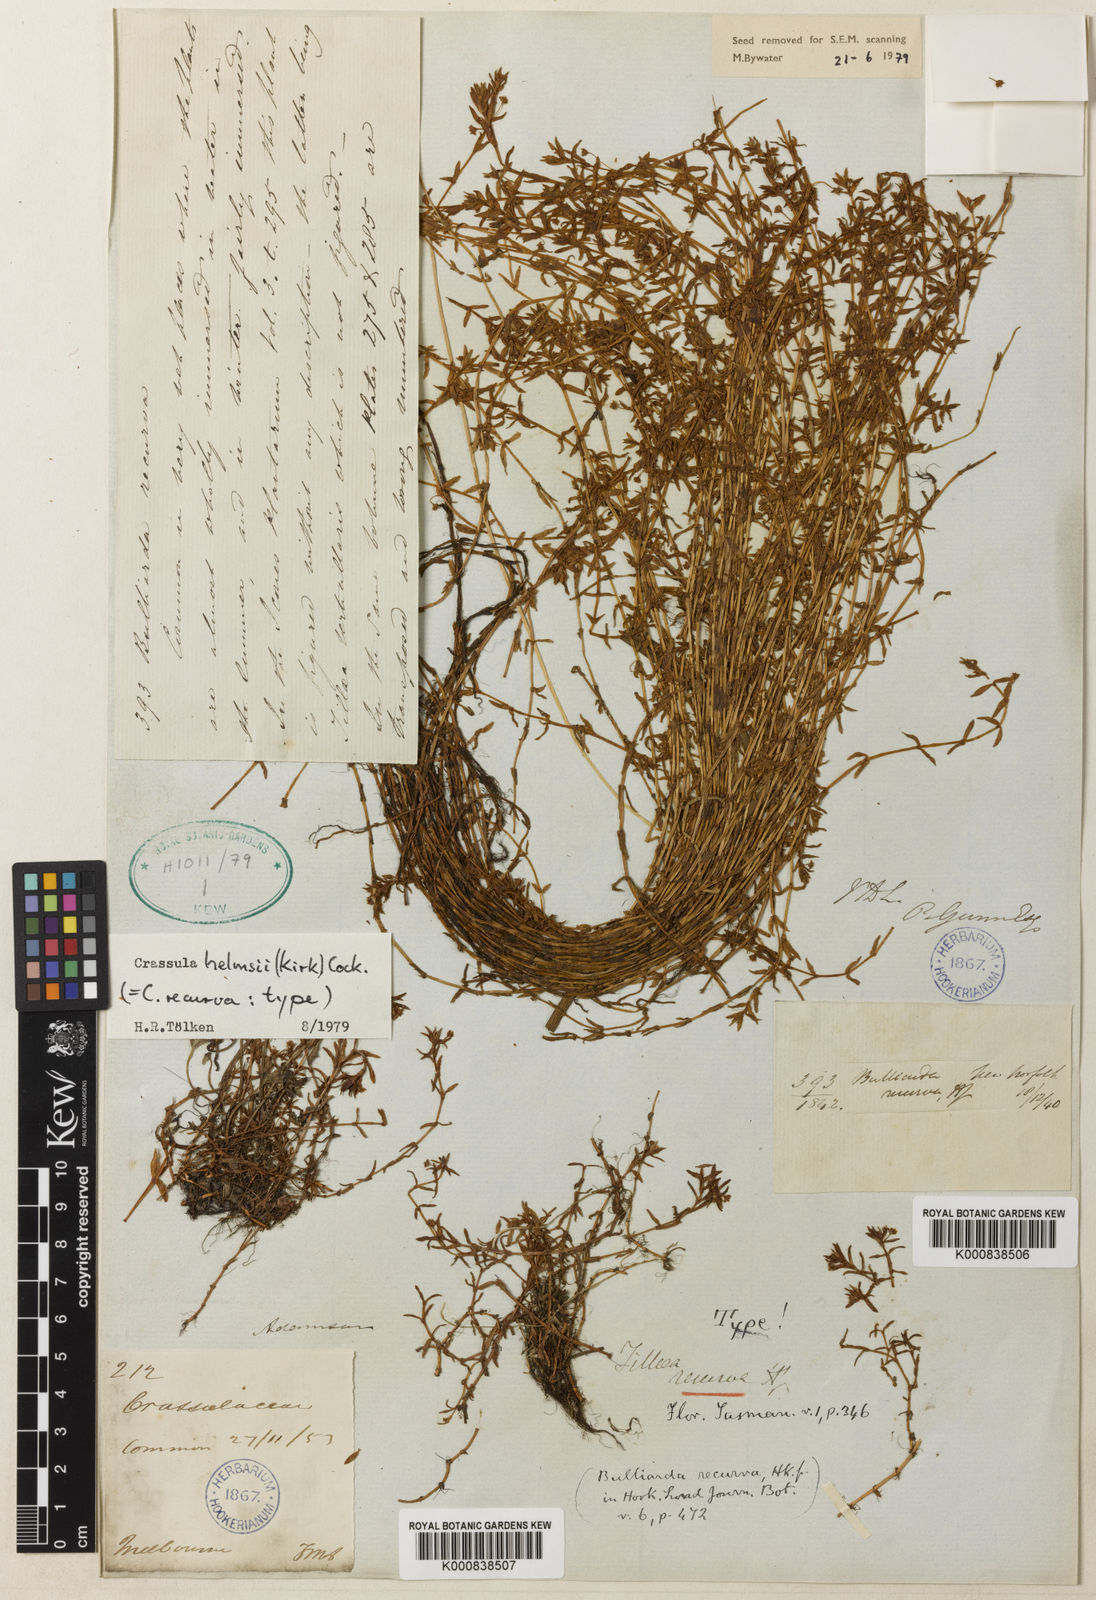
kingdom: Plantae
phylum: Tracheophyta
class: Magnoliopsida
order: Saxifragales
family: Crassulaceae
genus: Crassula
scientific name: Crassula helmsii
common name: New zealand pigmyweed
